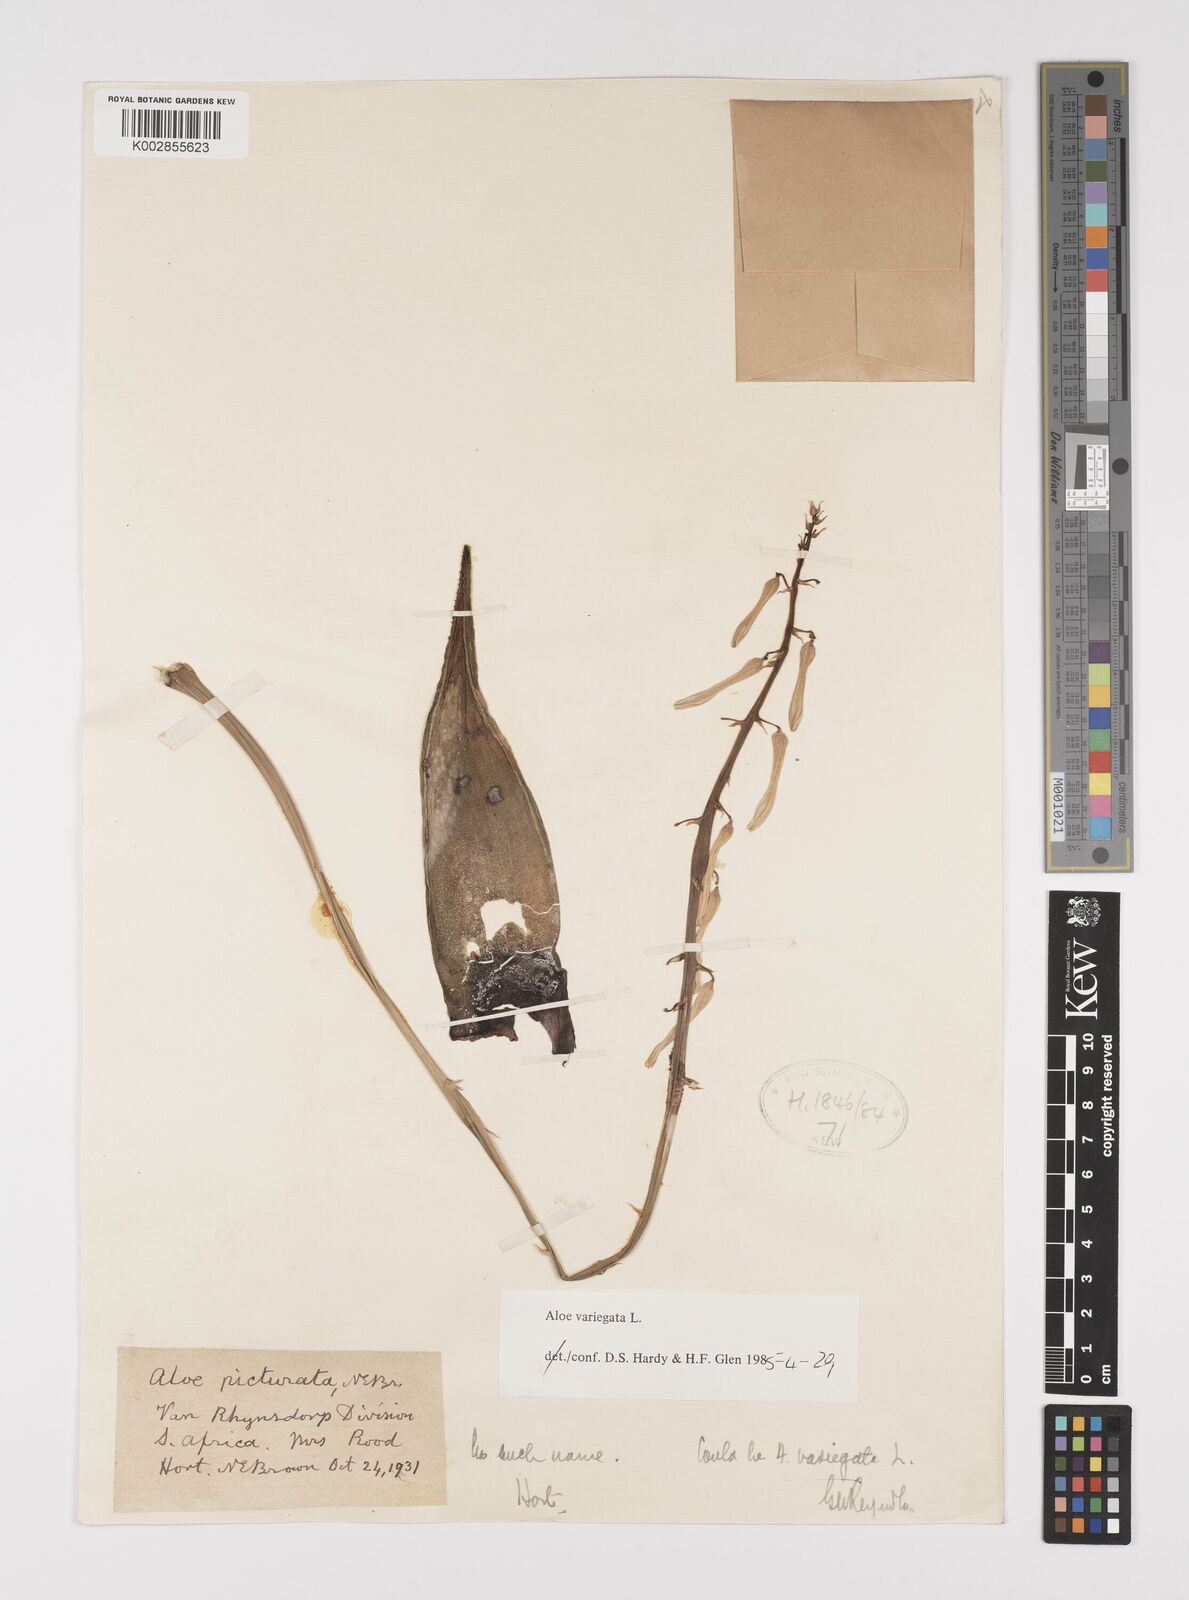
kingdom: Plantae
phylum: Tracheophyta
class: Liliopsida
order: Asparagales
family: Asphodelaceae
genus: Gonialoe
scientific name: Gonialoe variegata
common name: Aloe variegata
